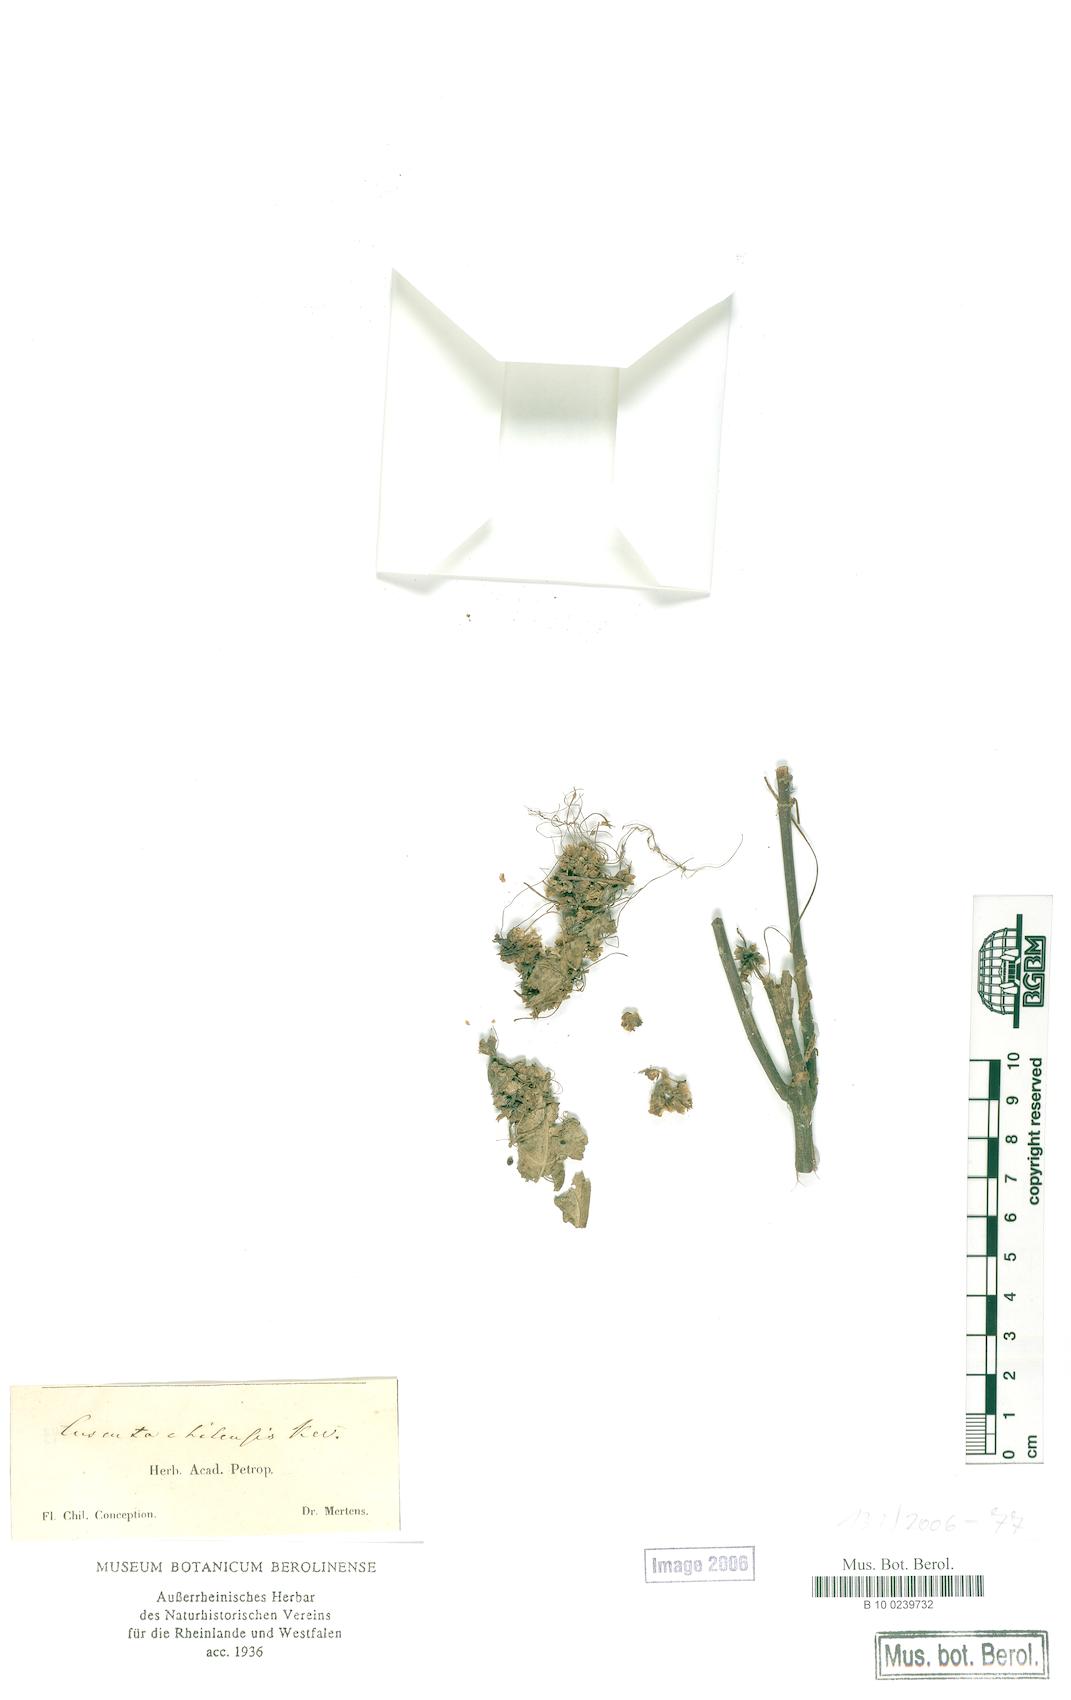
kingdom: Plantae
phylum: Tracheophyta
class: Magnoliopsida
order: Solanales
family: Convolvulaceae
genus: Cuscuta
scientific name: Cuscuta chilensis
